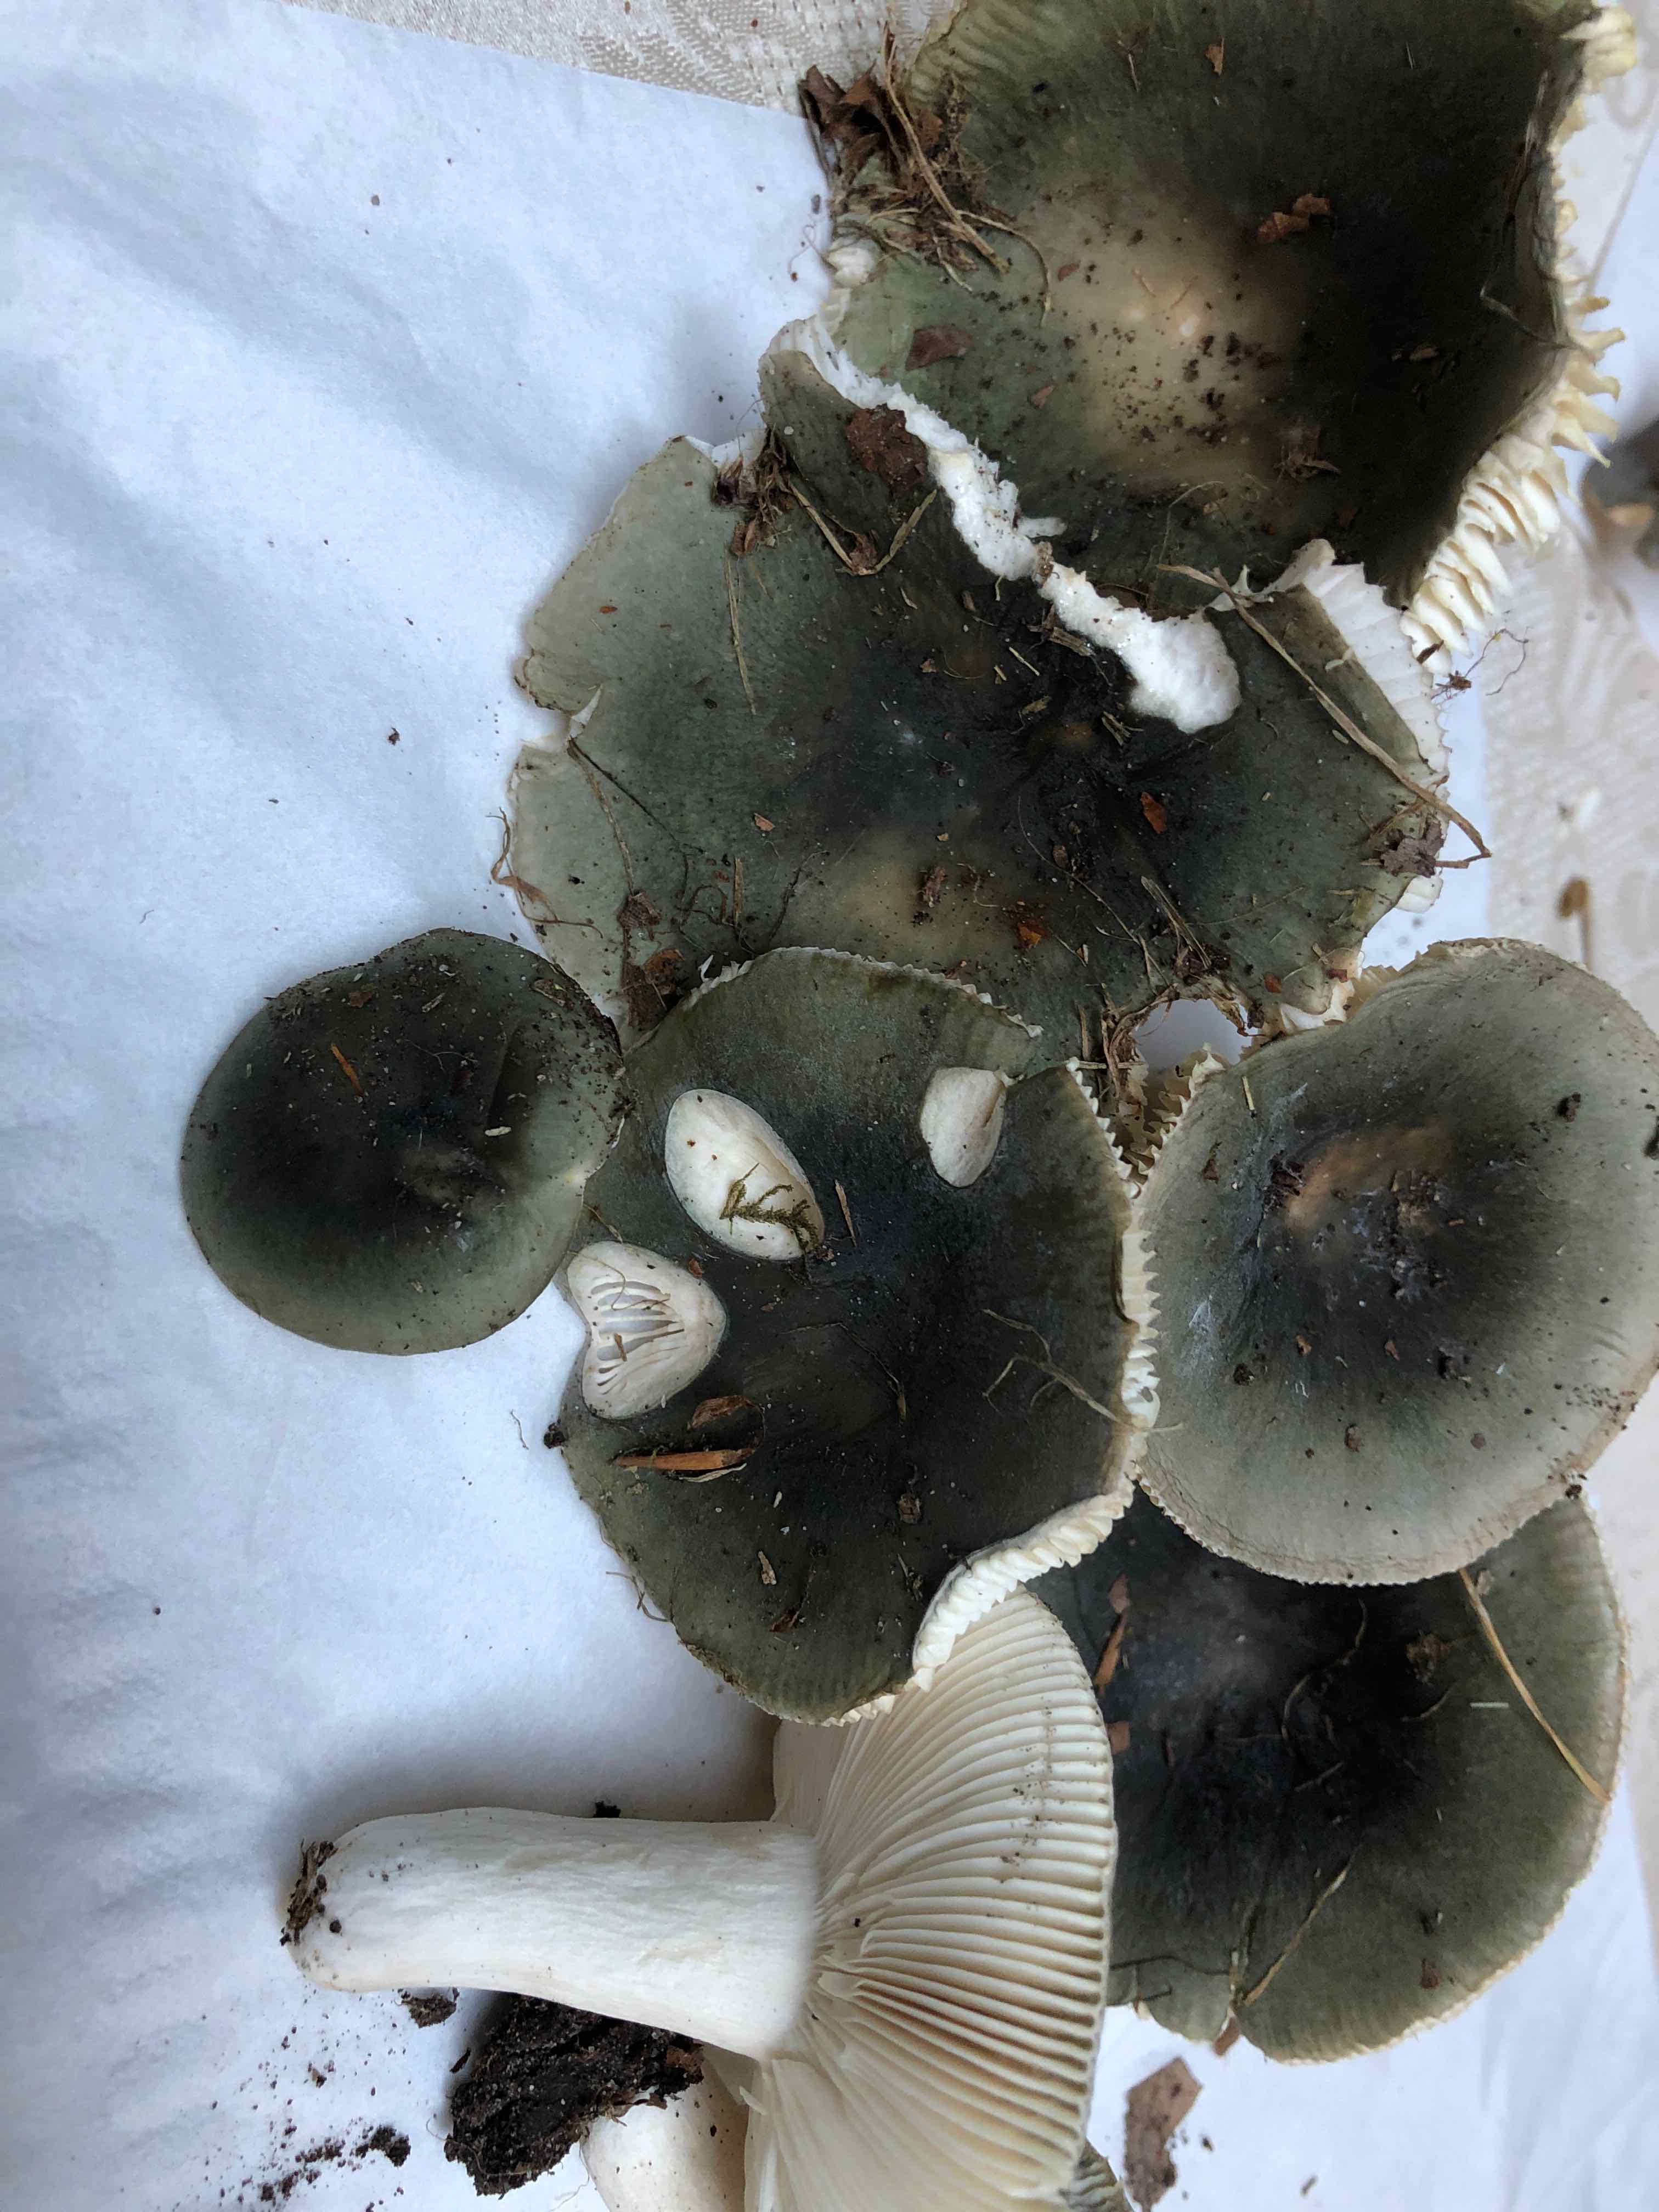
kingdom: Fungi
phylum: Basidiomycota
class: Agaricomycetes
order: Russulales
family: Russulaceae
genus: Russula
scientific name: Russula cyanoxantha
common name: broget skørhat
